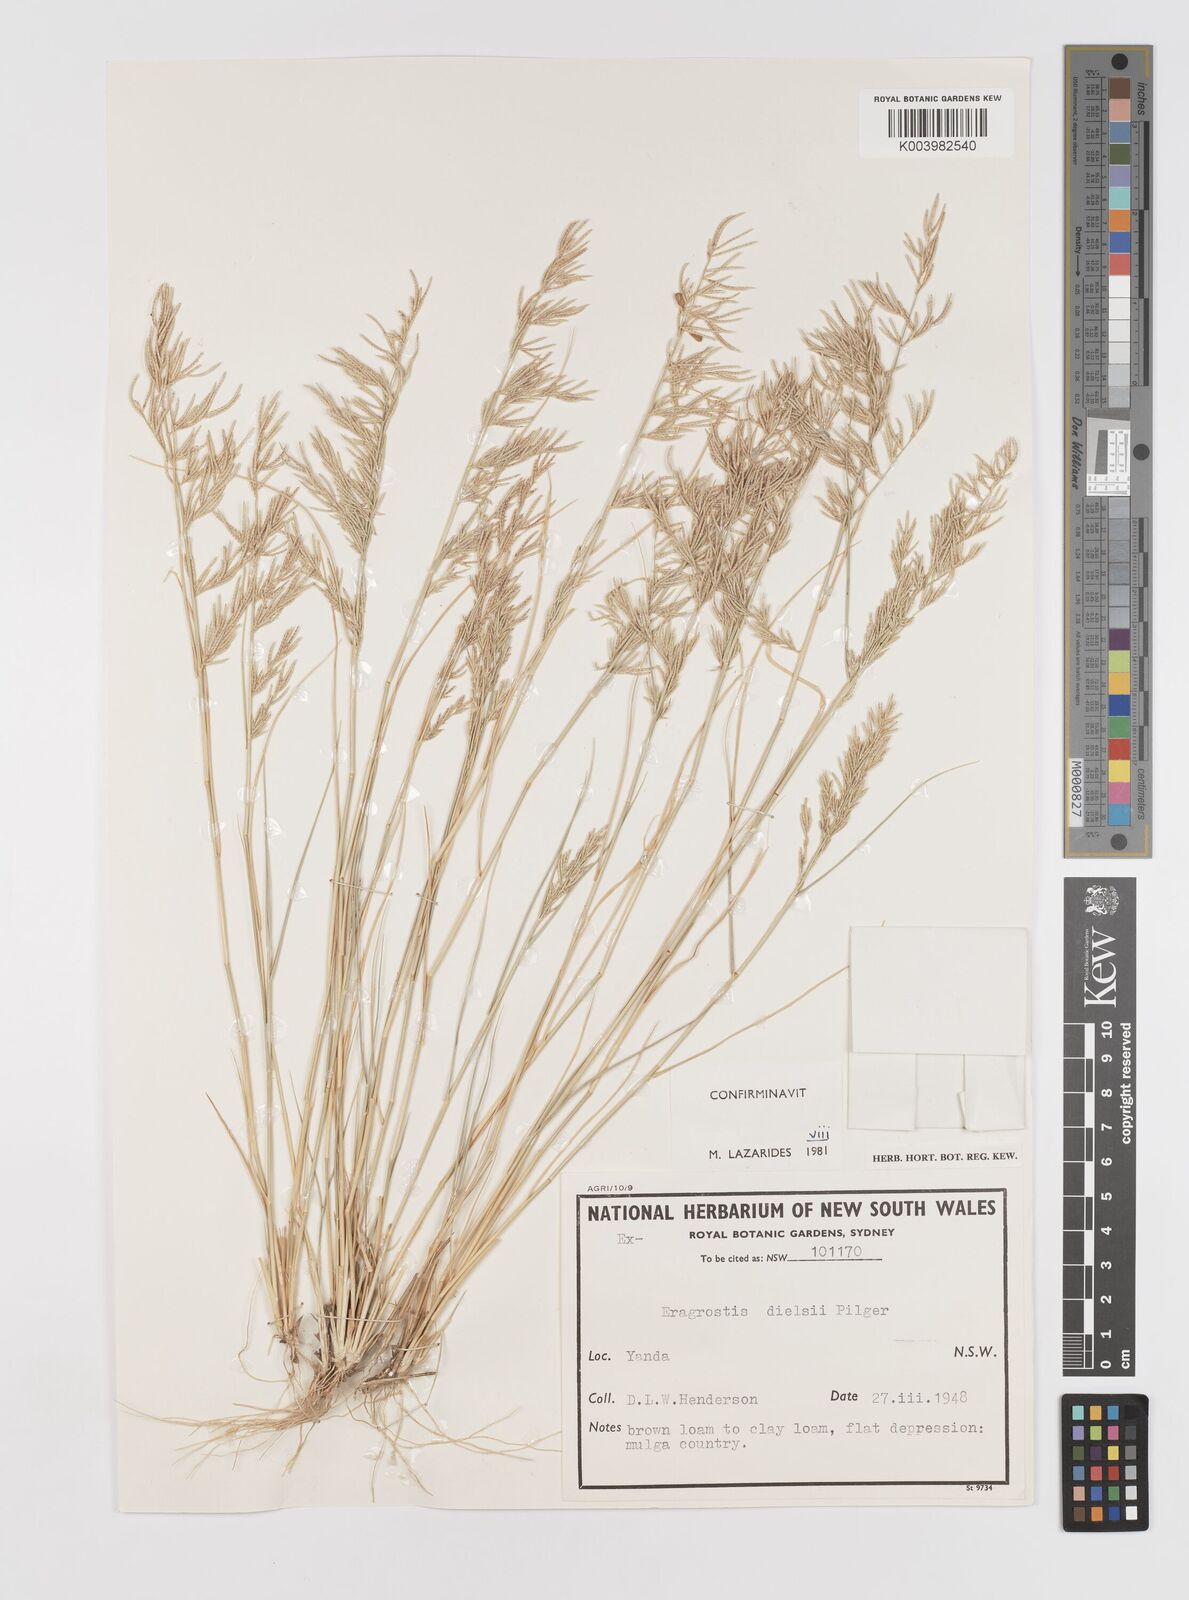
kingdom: Plantae
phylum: Tracheophyta
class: Liliopsida
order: Poales
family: Poaceae
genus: Eragrostis
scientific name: Eragrostis dielsii
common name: Lovegrass
